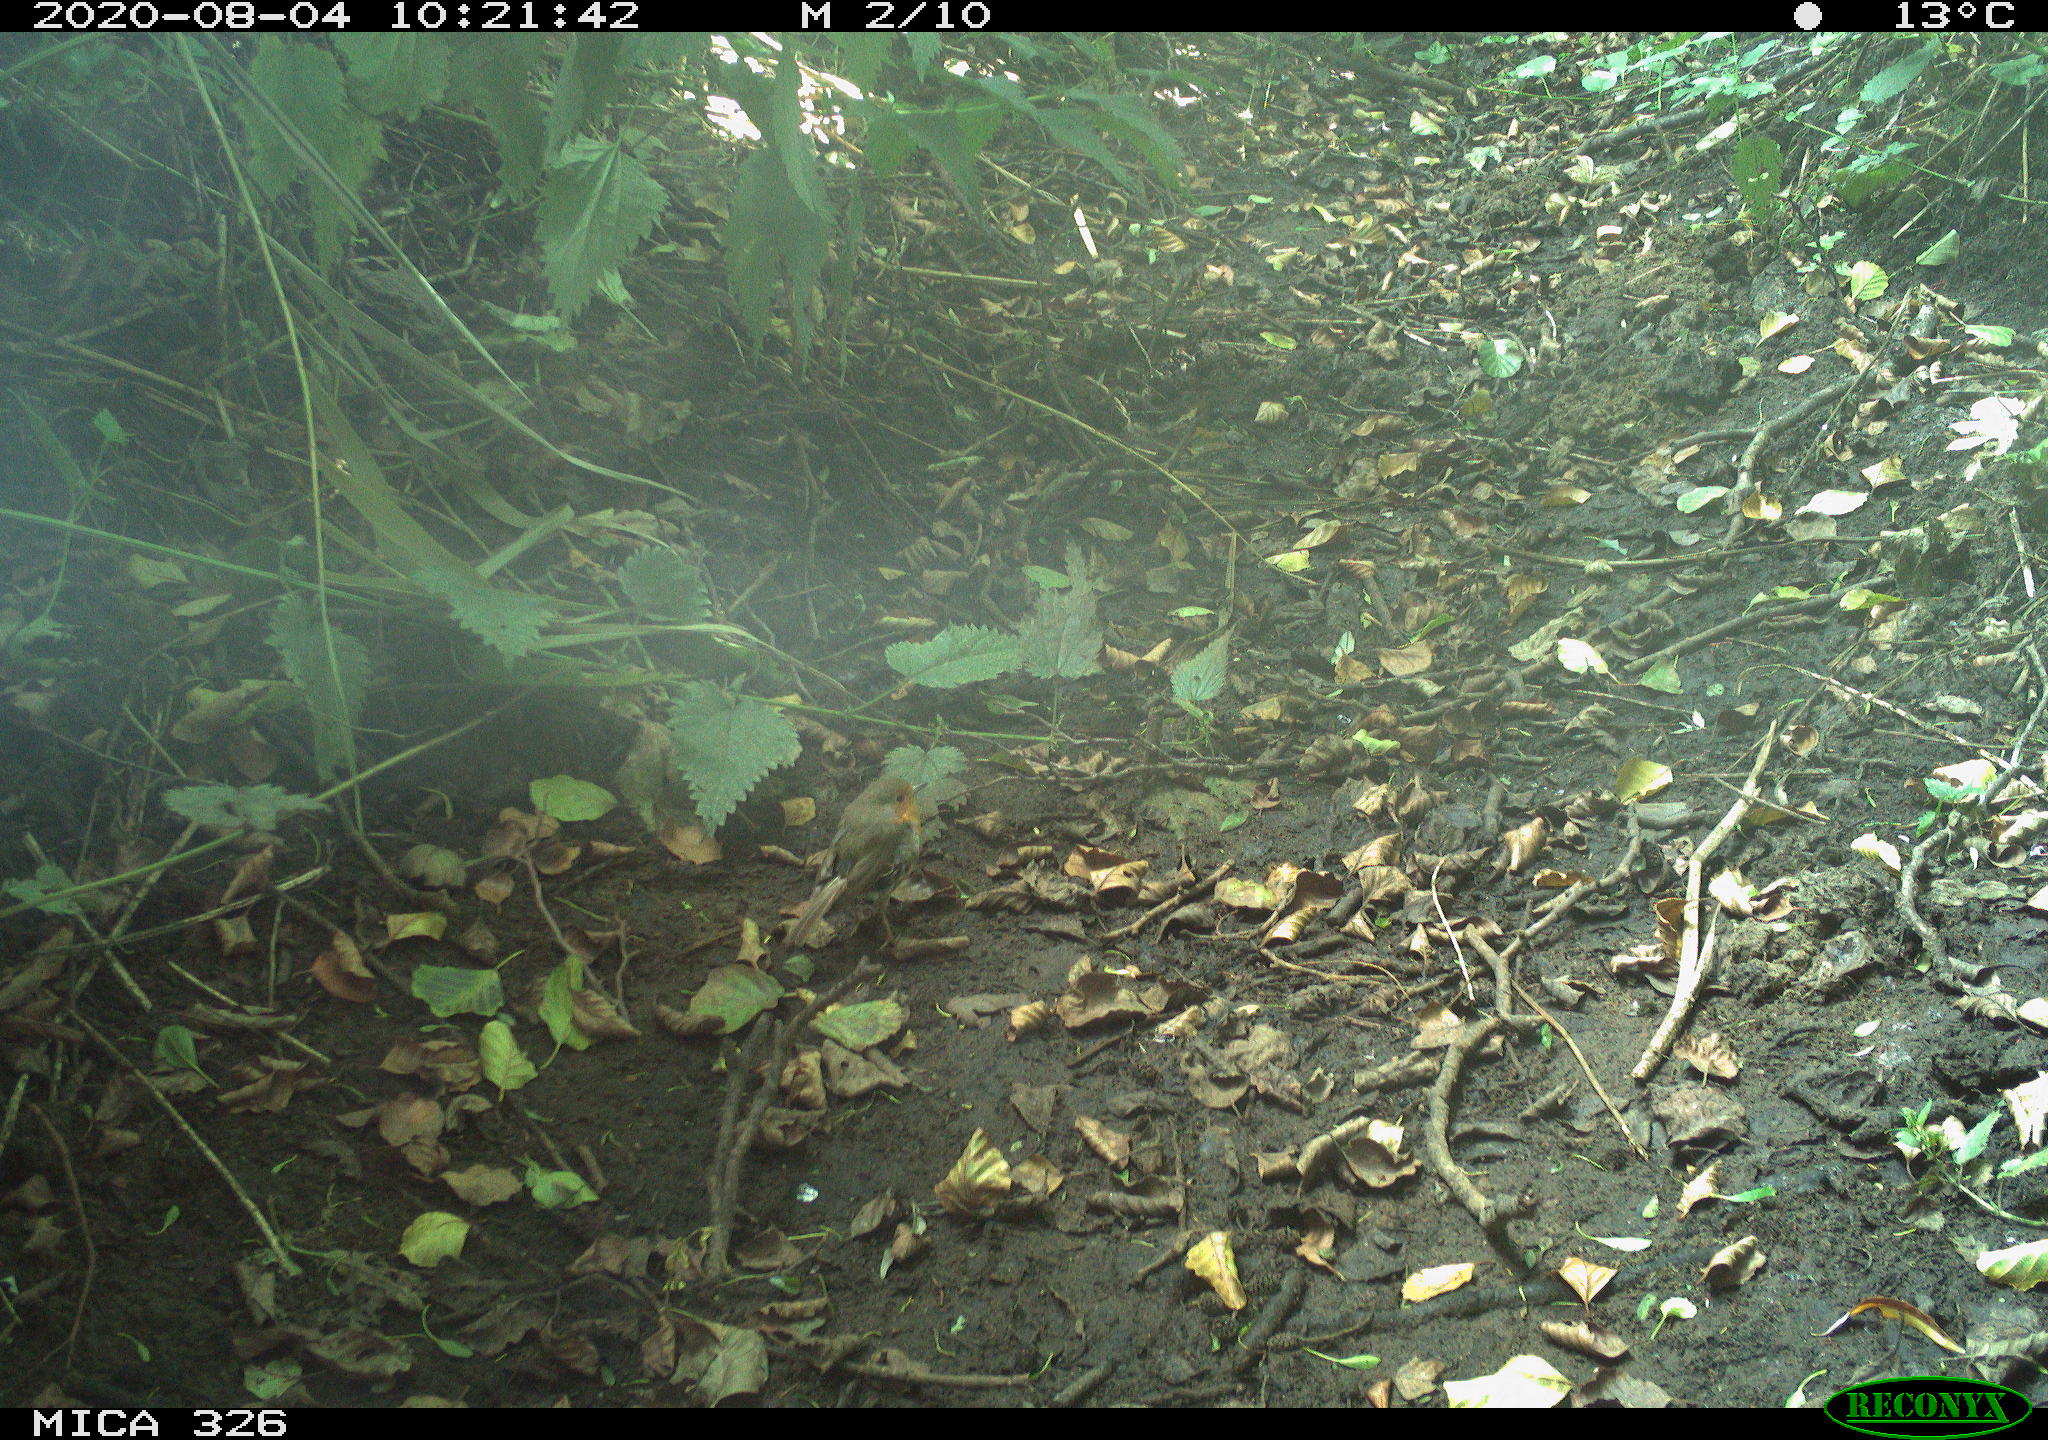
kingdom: Animalia
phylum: Chordata
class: Aves
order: Passeriformes
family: Muscicapidae
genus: Erithacus
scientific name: Erithacus rubecula
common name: European robin
